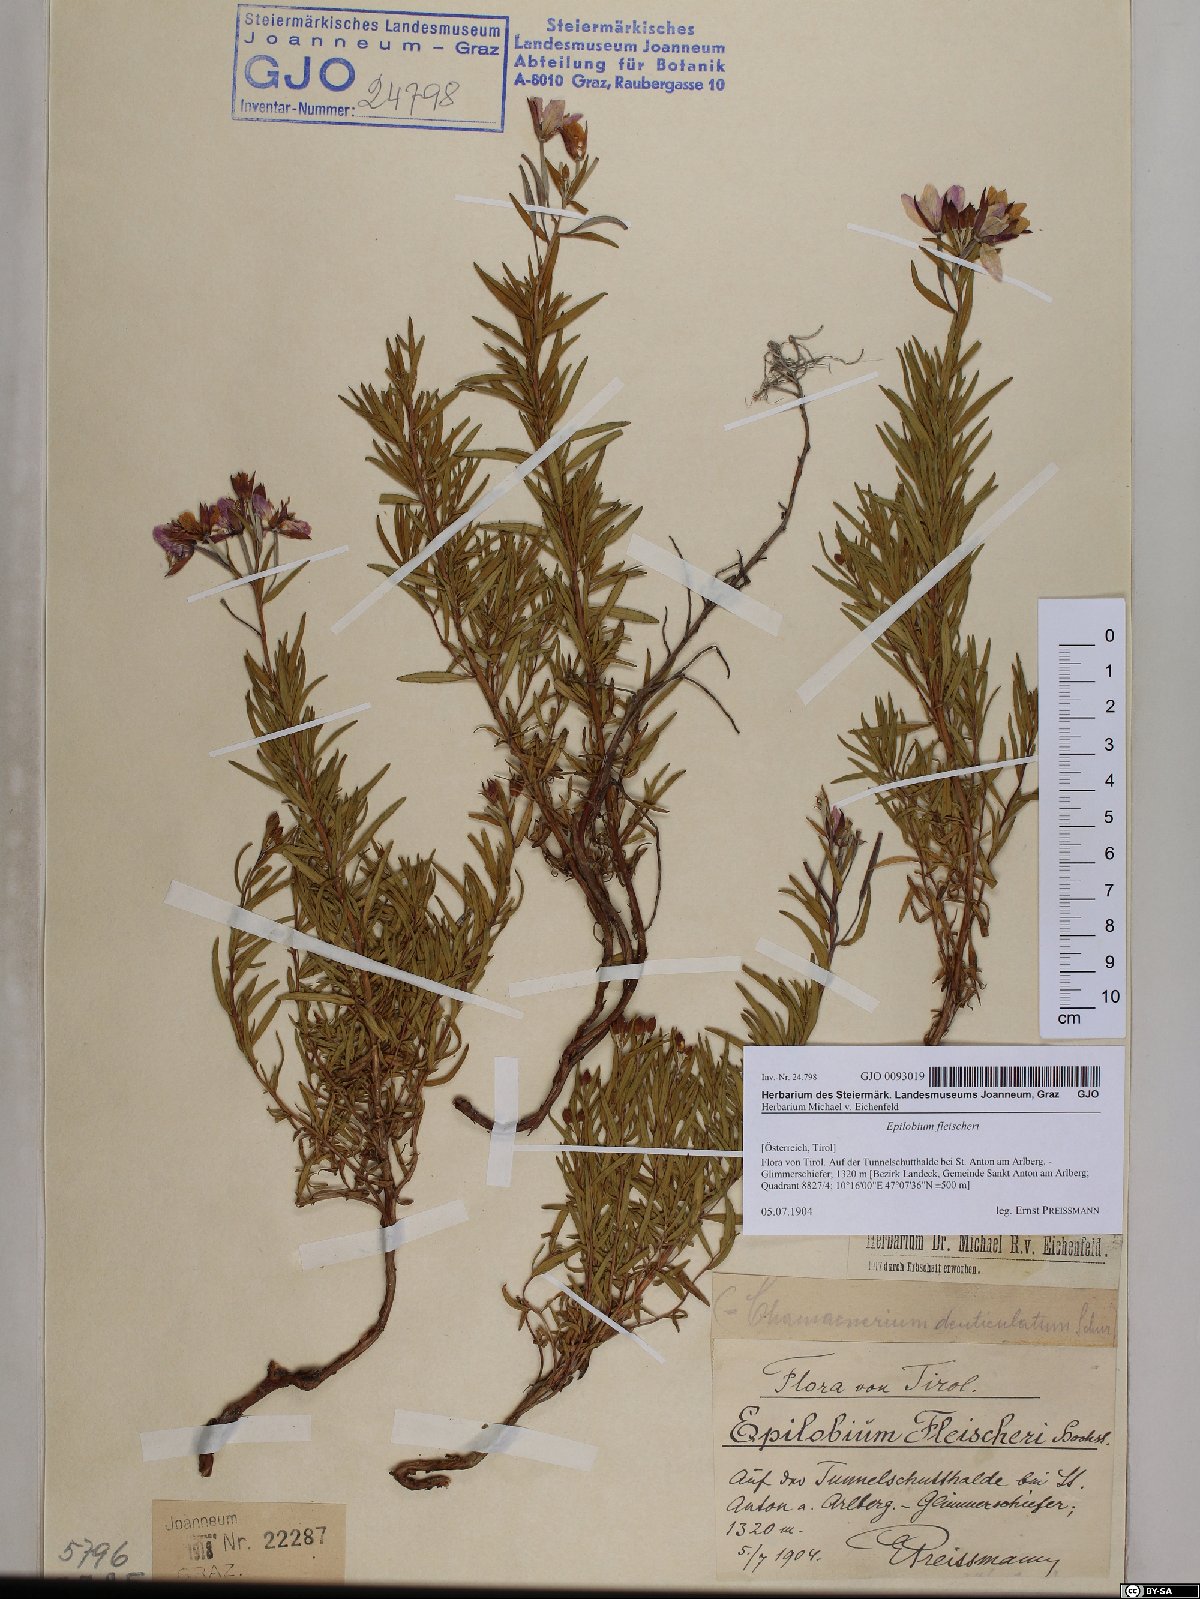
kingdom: Plantae
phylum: Tracheophyta
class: Magnoliopsida
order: Myrtales
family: Onagraceae
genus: Chamaenerion
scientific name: Chamaenerion fleischeri
